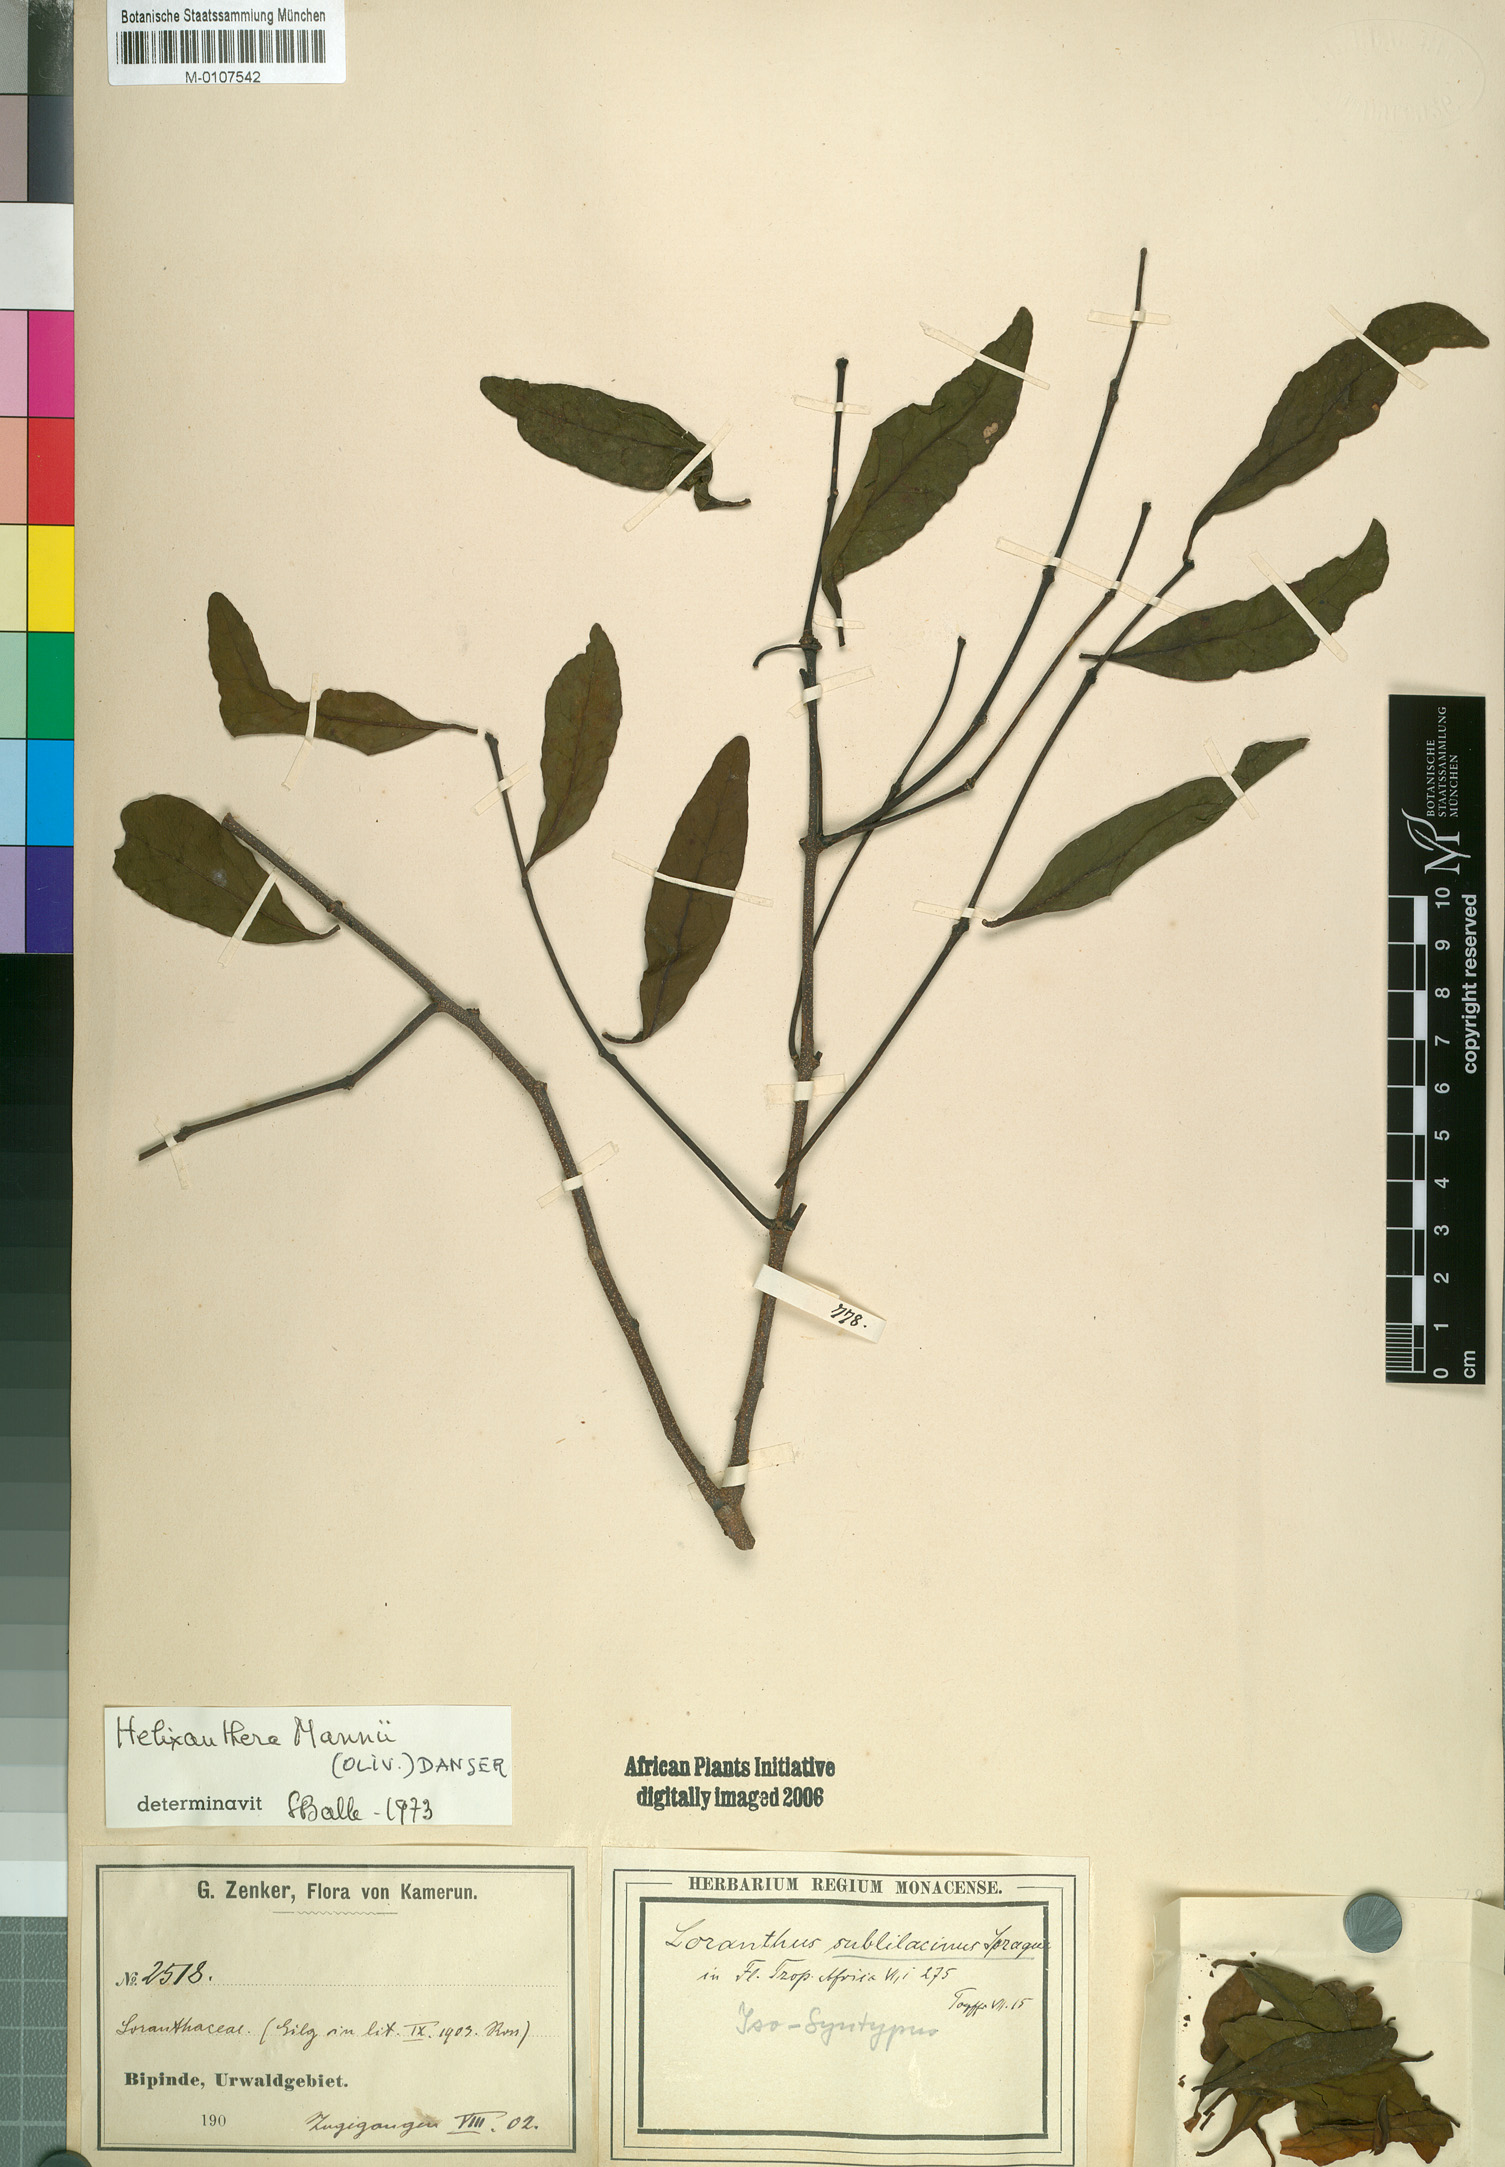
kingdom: Plantae
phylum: Tracheophyta
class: Magnoliopsida
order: Santalales
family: Loranthaceae
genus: Helixanthera
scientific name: Helixanthera mannii
